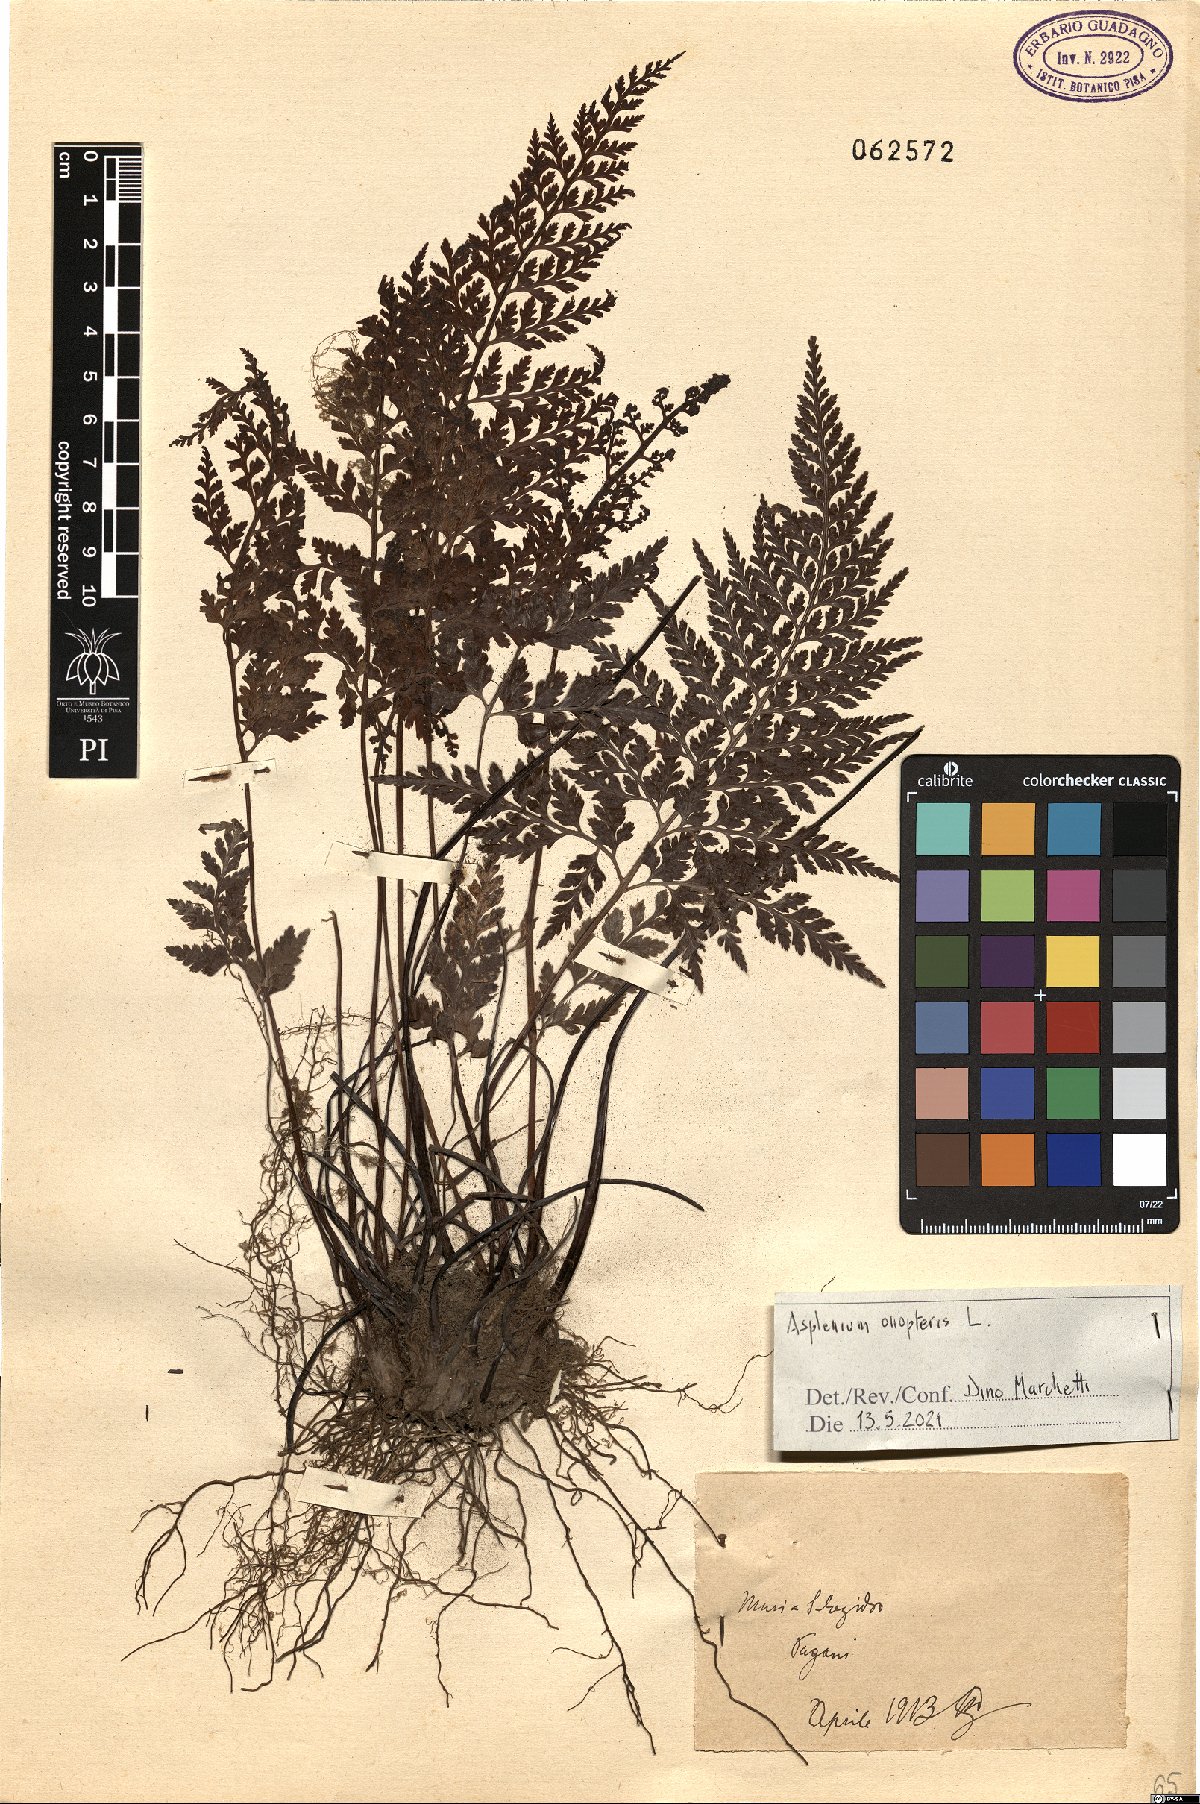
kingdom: Plantae
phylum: Tracheophyta
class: Polypodiopsida
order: Polypodiales
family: Aspleniaceae
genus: Asplenium
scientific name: Asplenium onopteris
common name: Irish spleenwort
